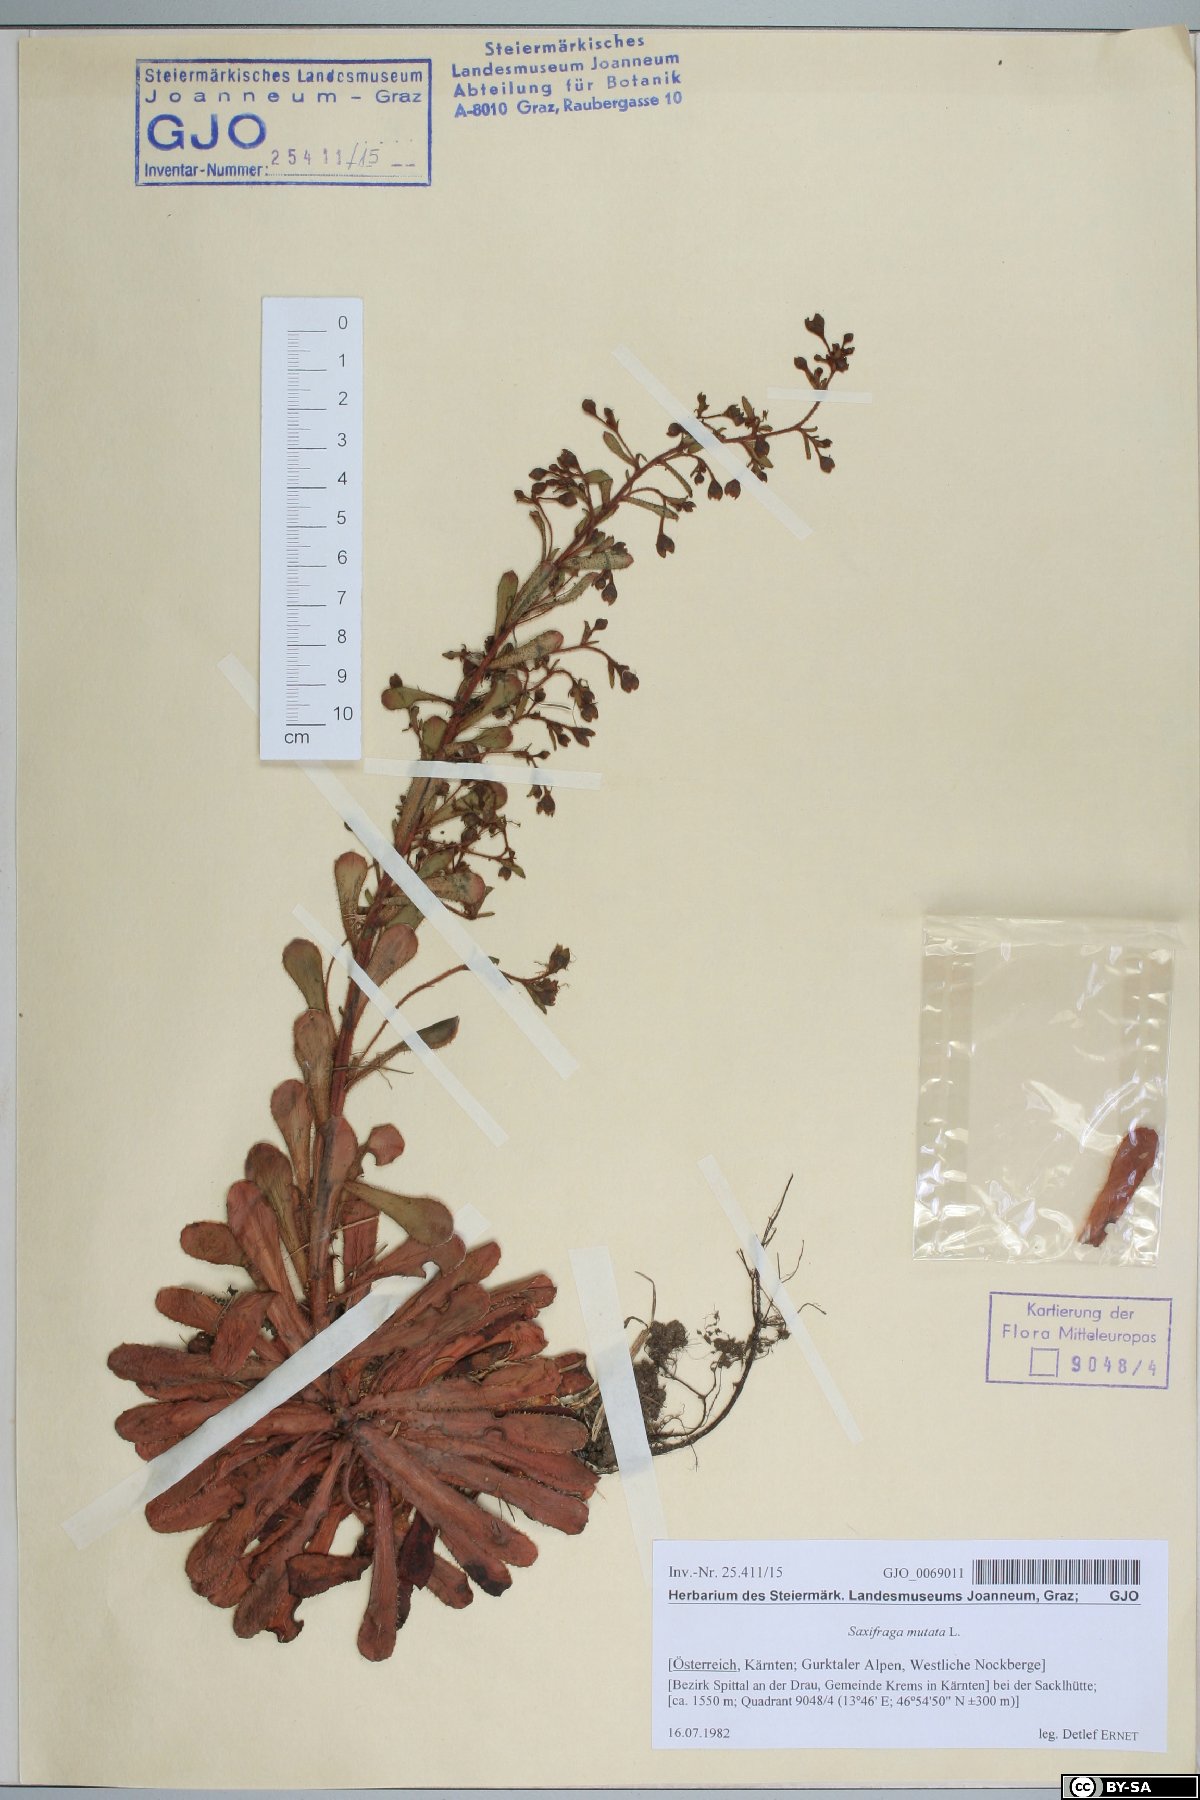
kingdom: Plantae
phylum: Tracheophyta
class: Magnoliopsida
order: Saxifragales
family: Saxifragaceae
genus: Saxifraga
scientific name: Saxifraga mutata
